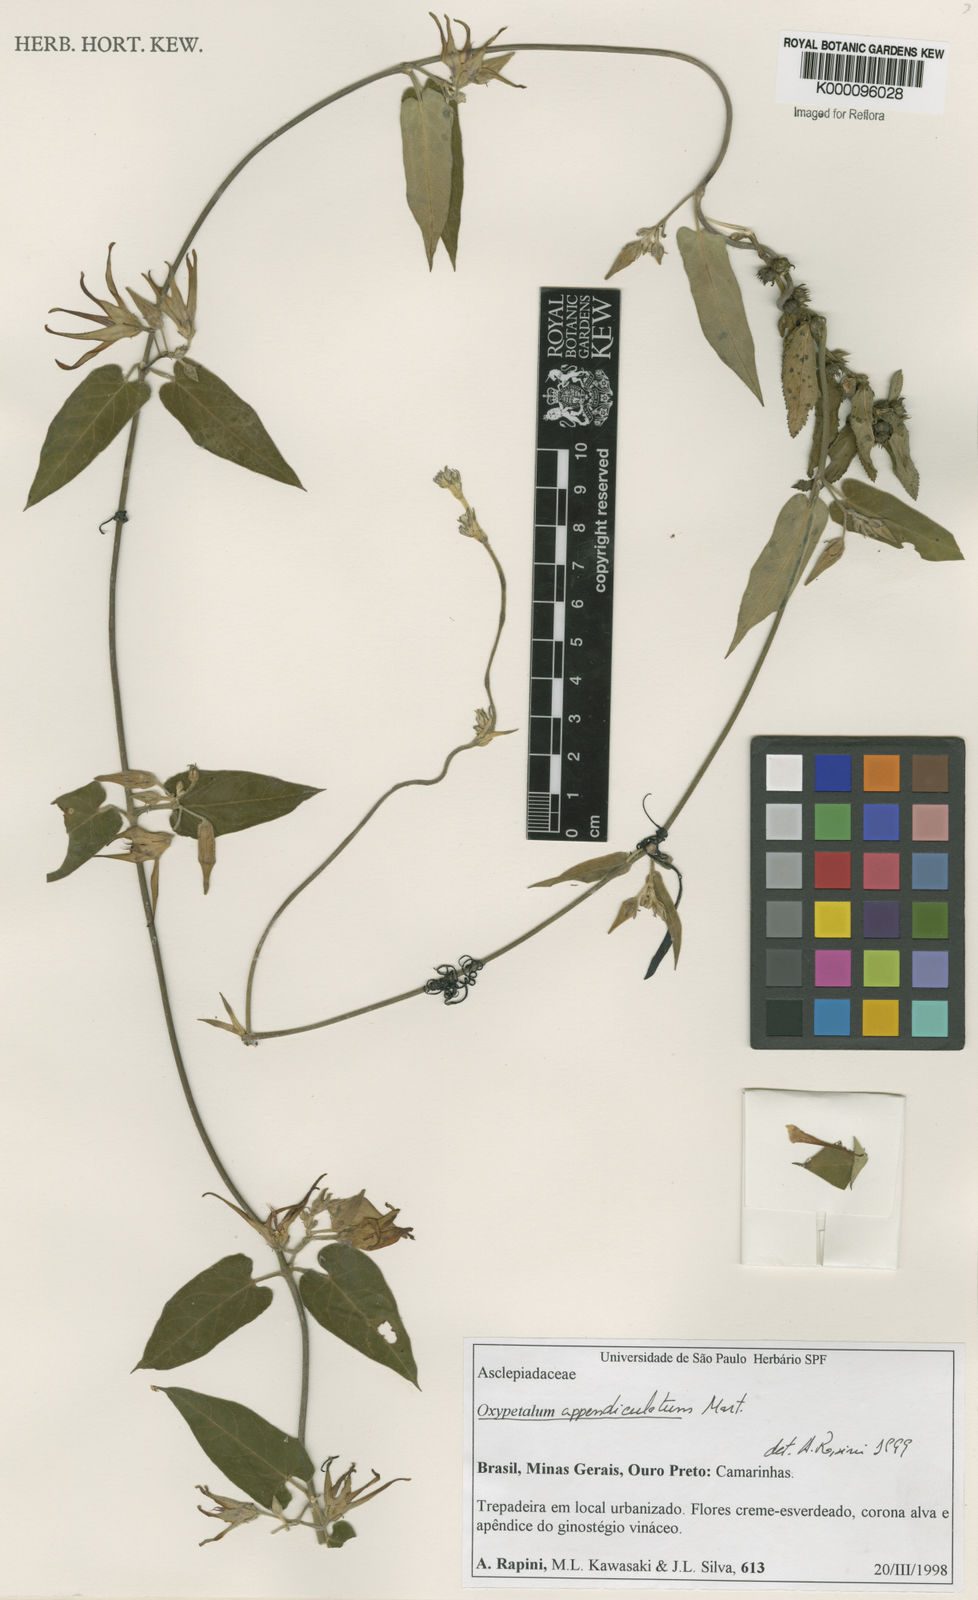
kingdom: Plantae
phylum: Tracheophyta
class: Magnoliopsida
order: Gentianales
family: Apocynaceae
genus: Oxypetalum
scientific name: Oxypetalum appendiculatum
